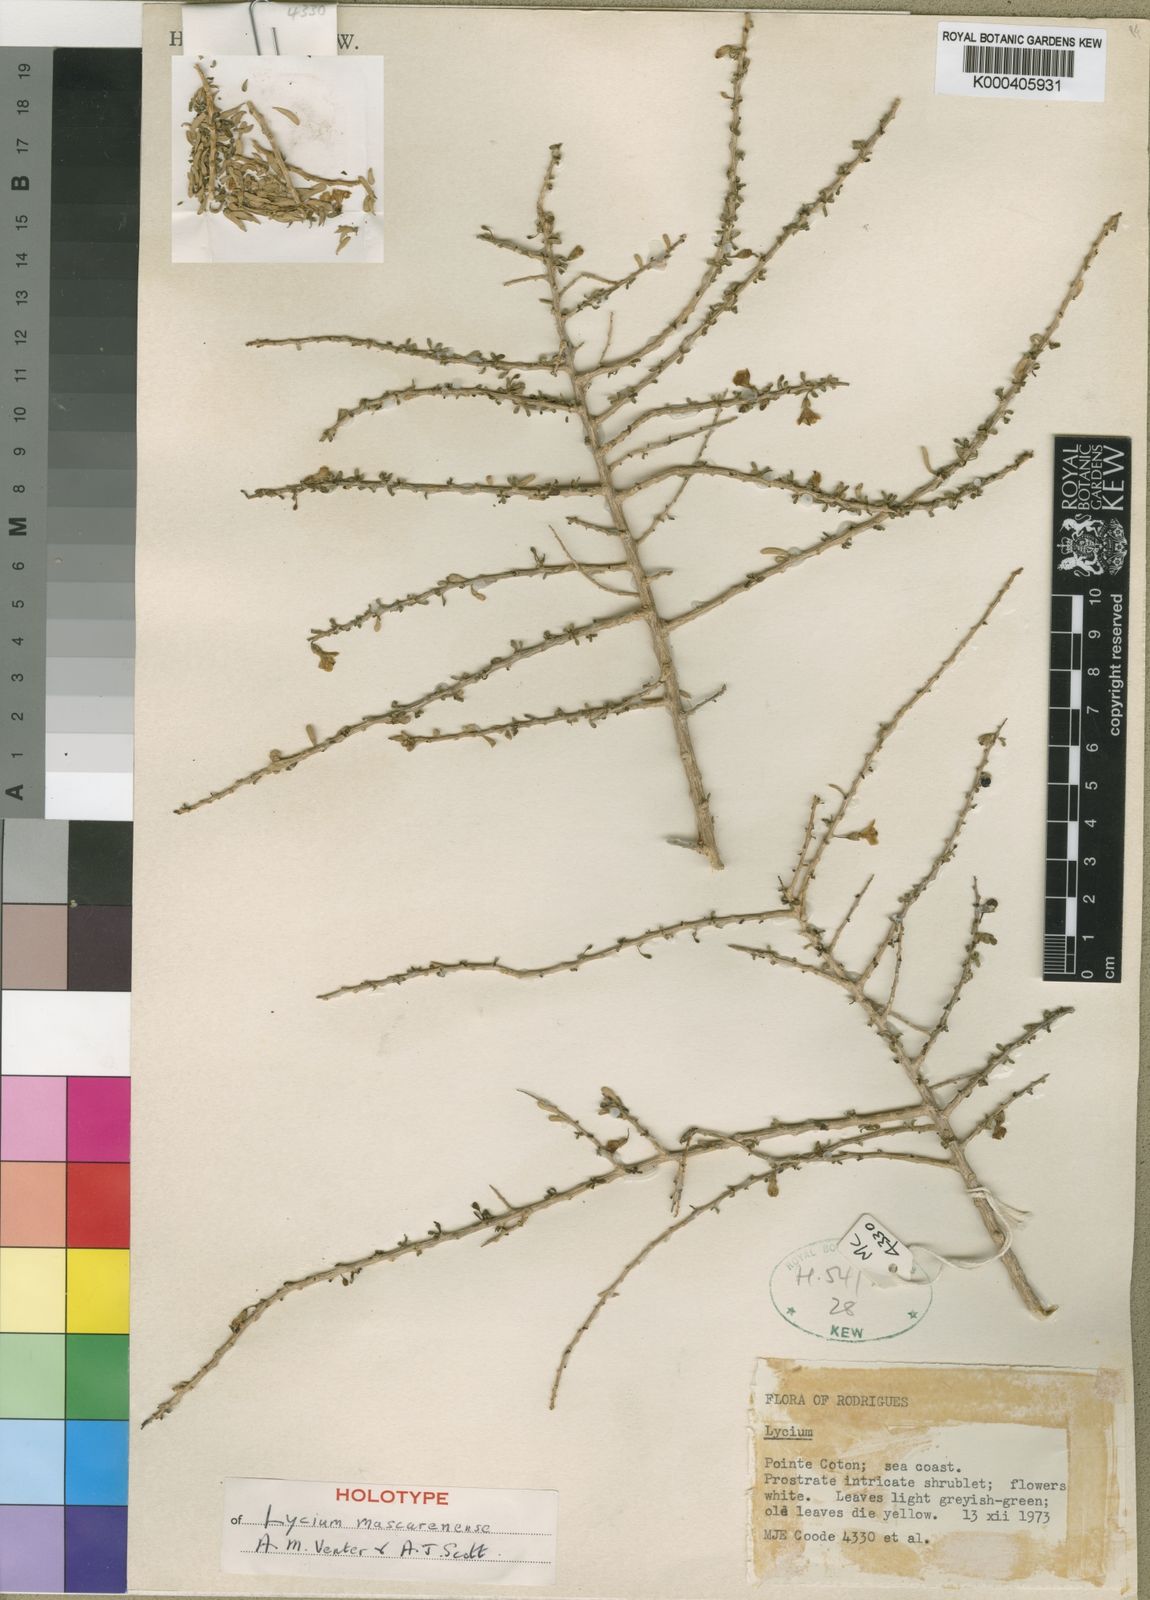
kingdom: Plantae
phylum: Tracheophyta
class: Magnoliopsida
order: Solanales
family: Solanaceae
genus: Lycium
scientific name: Lycium horridum
